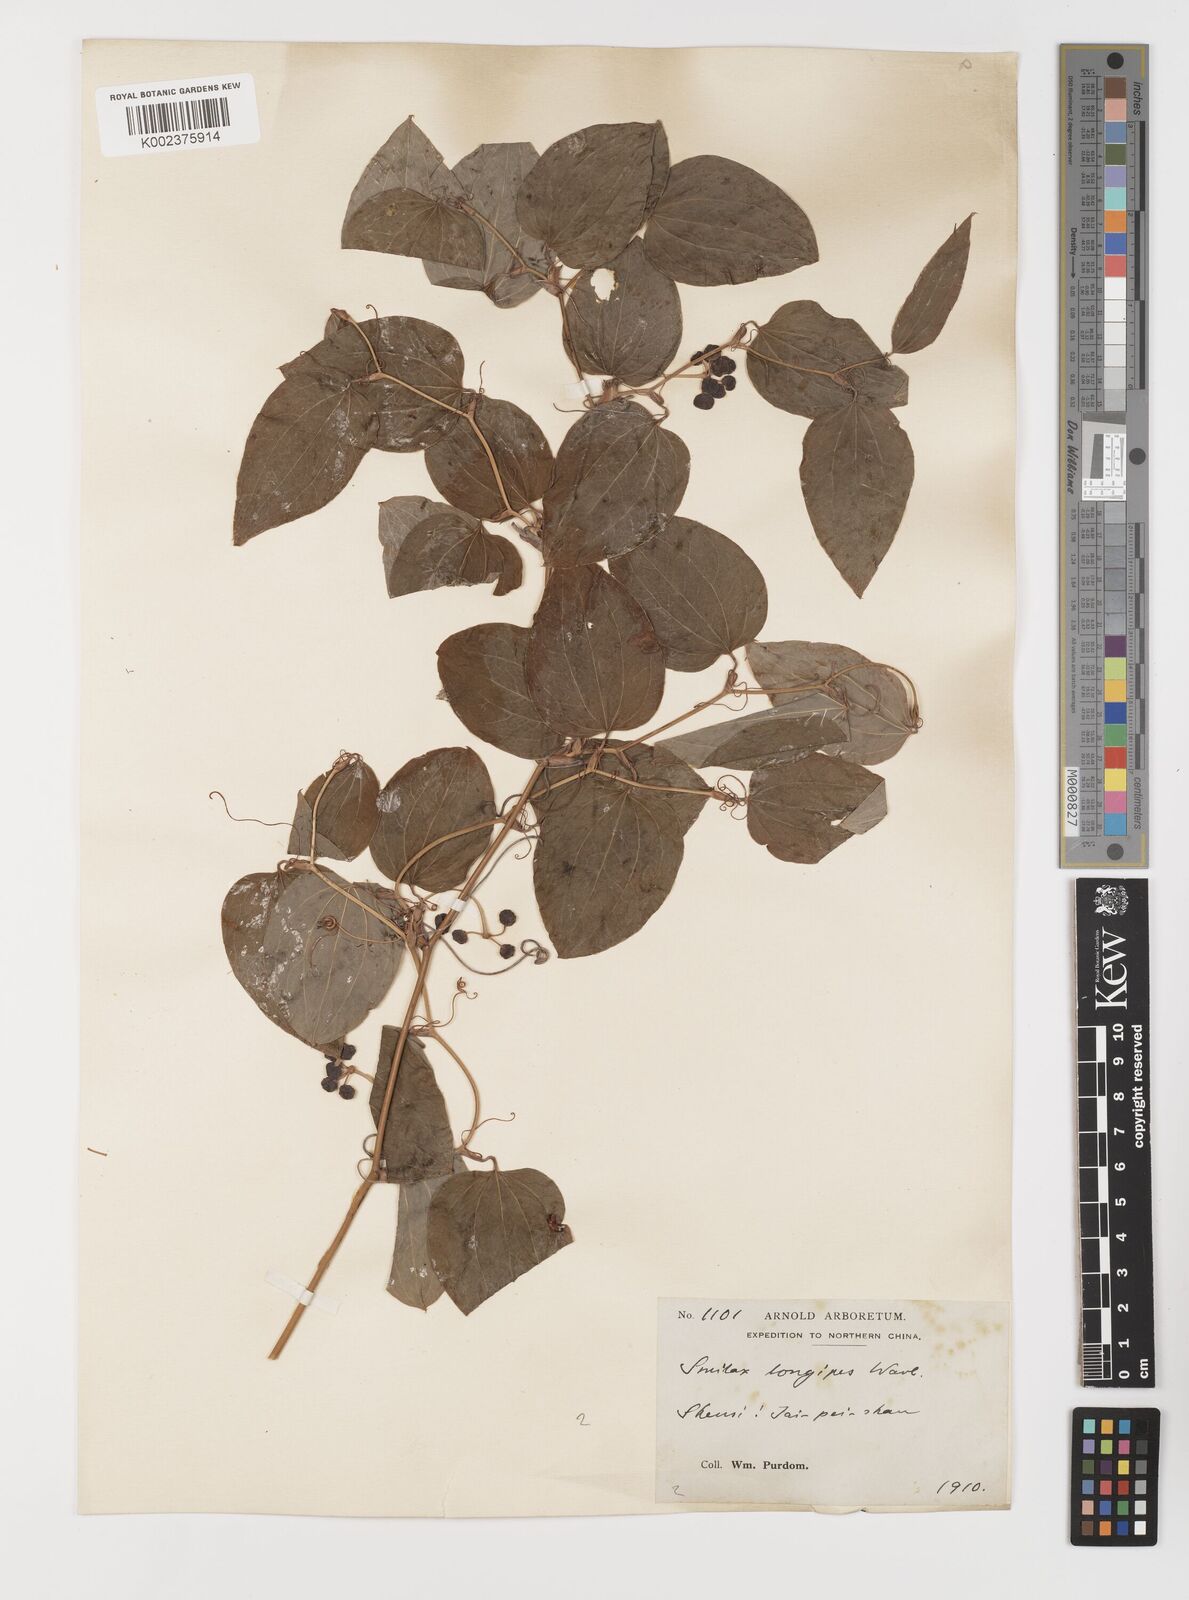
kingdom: Plantae
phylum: Tracheophyta
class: Liliopsida
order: Liliales
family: Smilacaceae
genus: Smilax
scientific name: Smilax menispermoidea
